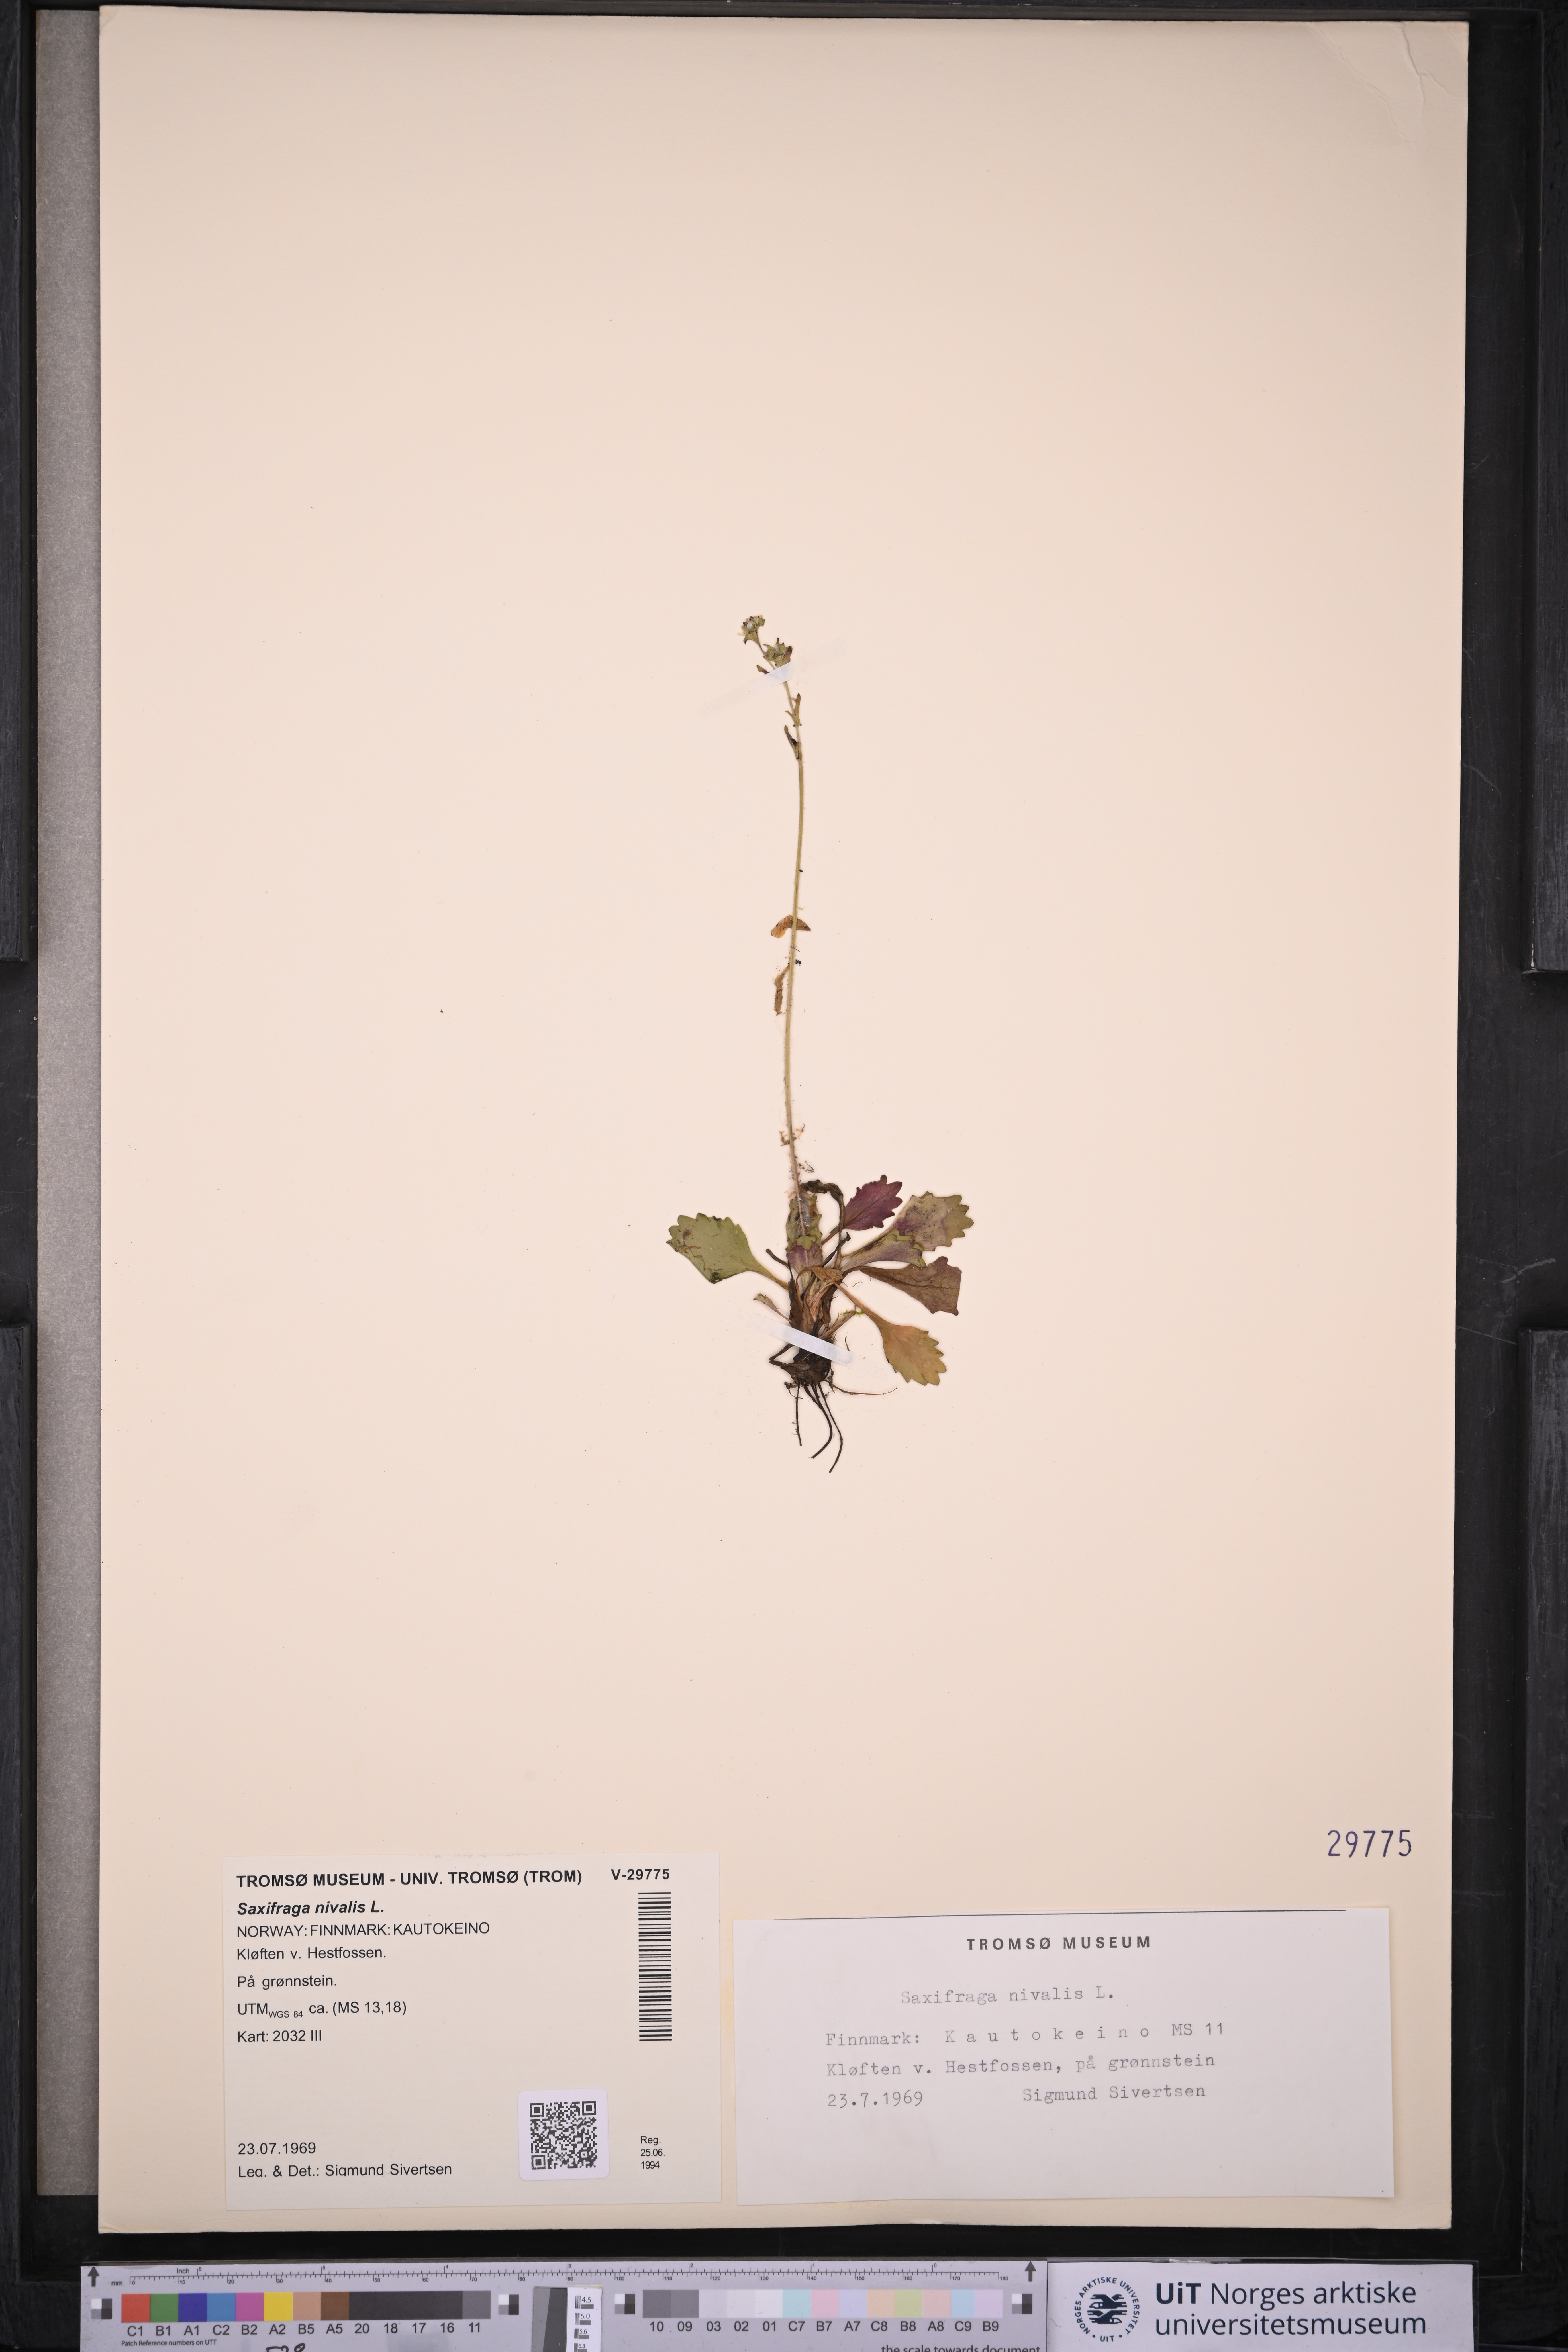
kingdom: Plantae
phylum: Tracheophyta
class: Magnoliopsida
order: Saxifragales
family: Saxifragaceae
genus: Micranthes
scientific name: Micranthes nivalis
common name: Alpine saxifrage
